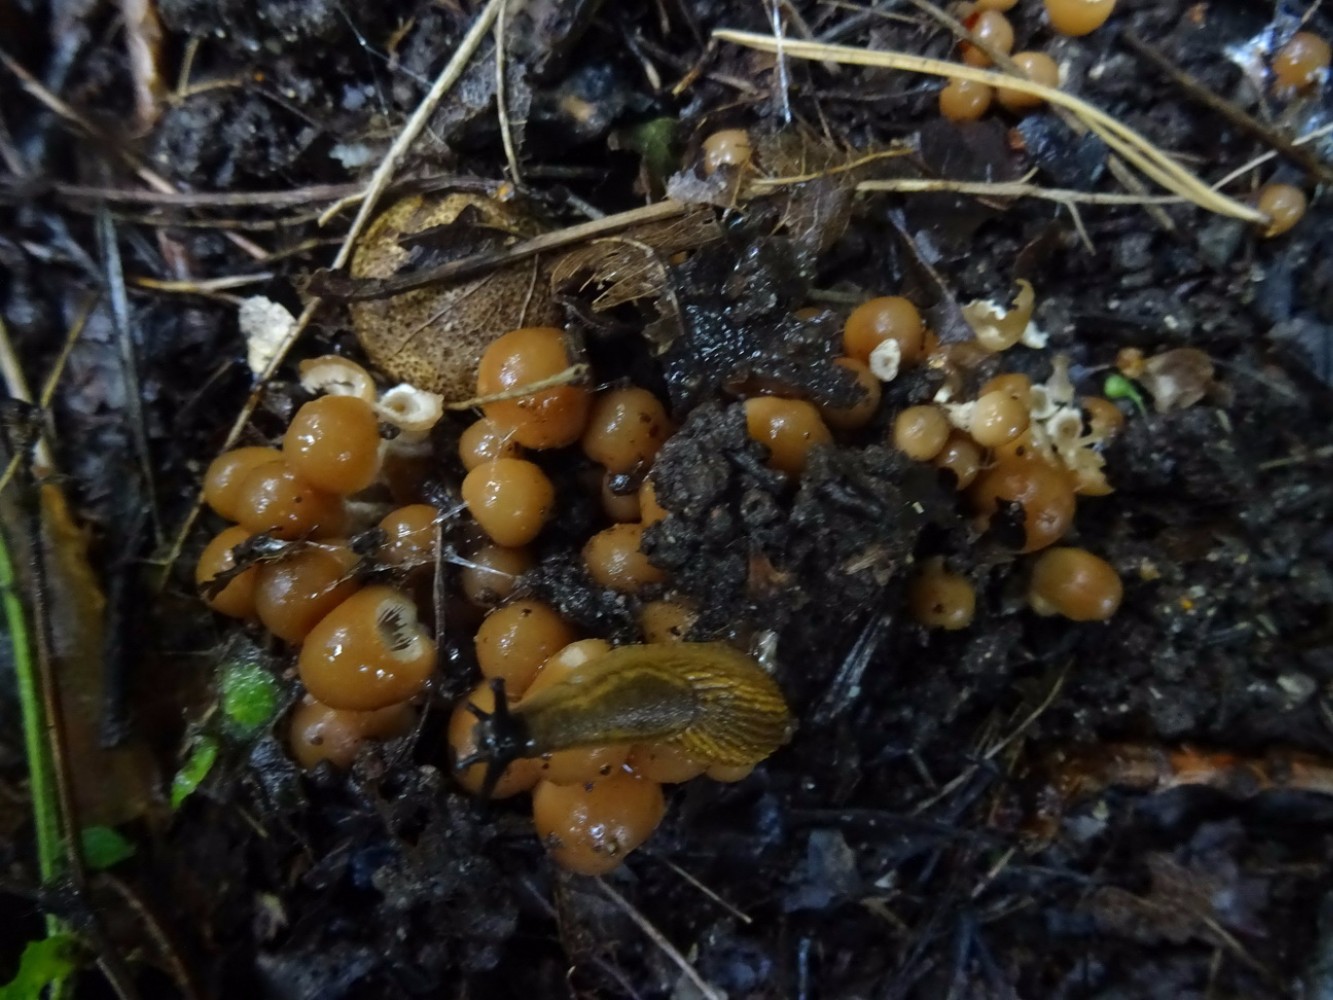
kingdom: Fungi
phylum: Basidiomycota
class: Agaricomycetes
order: Agaricales
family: Psathyrellaceae
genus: Britzelmayria
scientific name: Britzelmayria multipedata
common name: knippe-mørkhat
